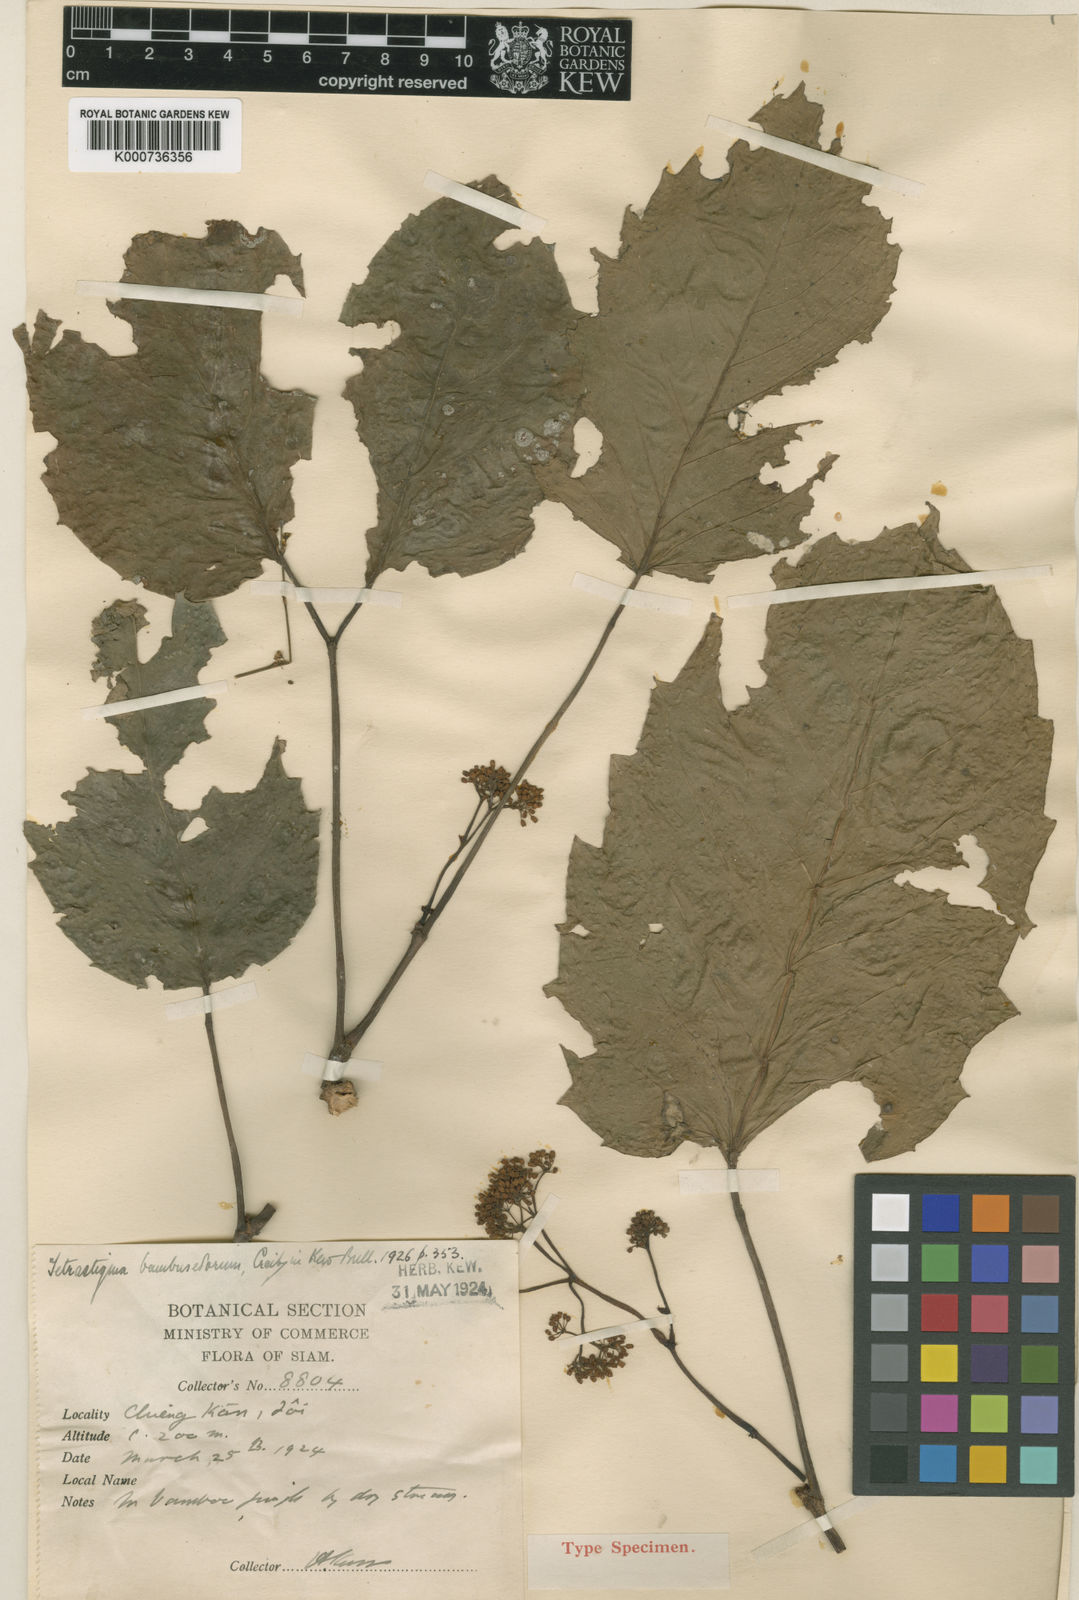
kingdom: Plantae
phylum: Tracheophyta
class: Magnoliopsida
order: Vitales
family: Vitaceae
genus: Tetrastigma
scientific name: Tetrastigma bambusetorum
